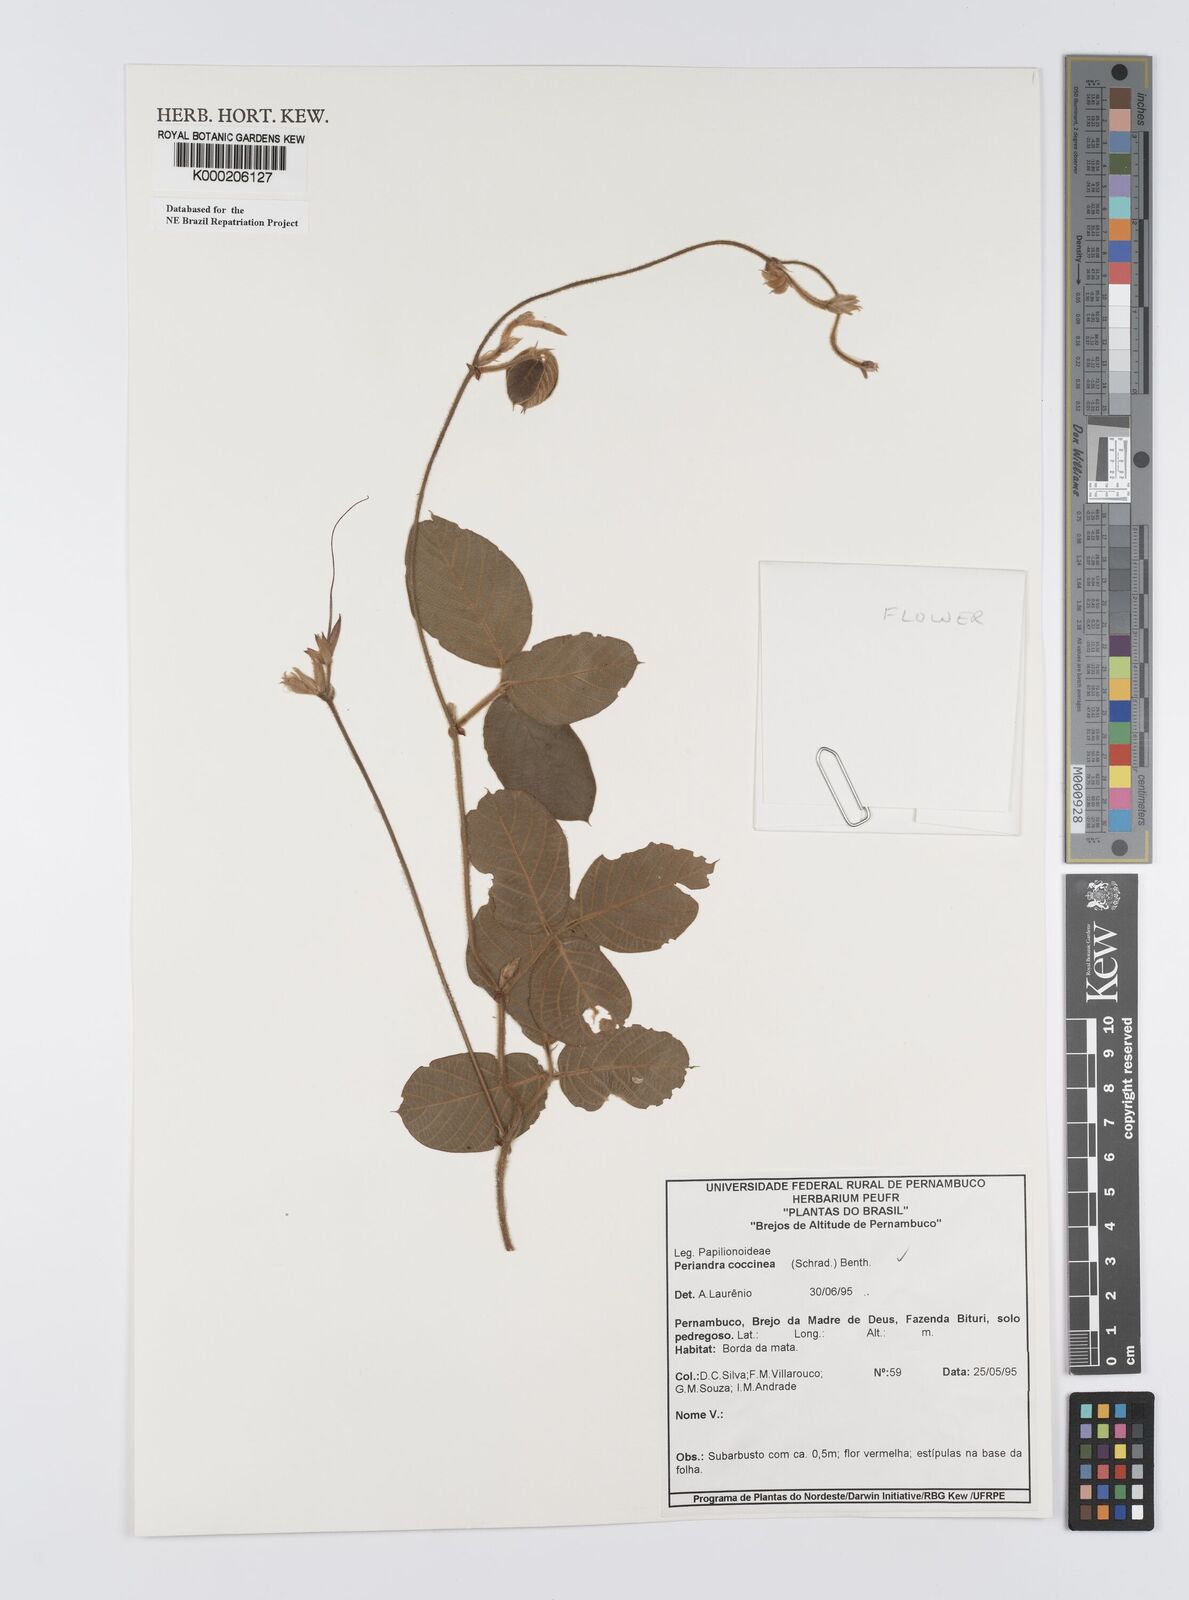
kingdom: Plantae
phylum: Tracheophyta
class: Magnoliopsida
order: Fabales
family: Fabaceae
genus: Periandra
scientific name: Periandra coccinea
